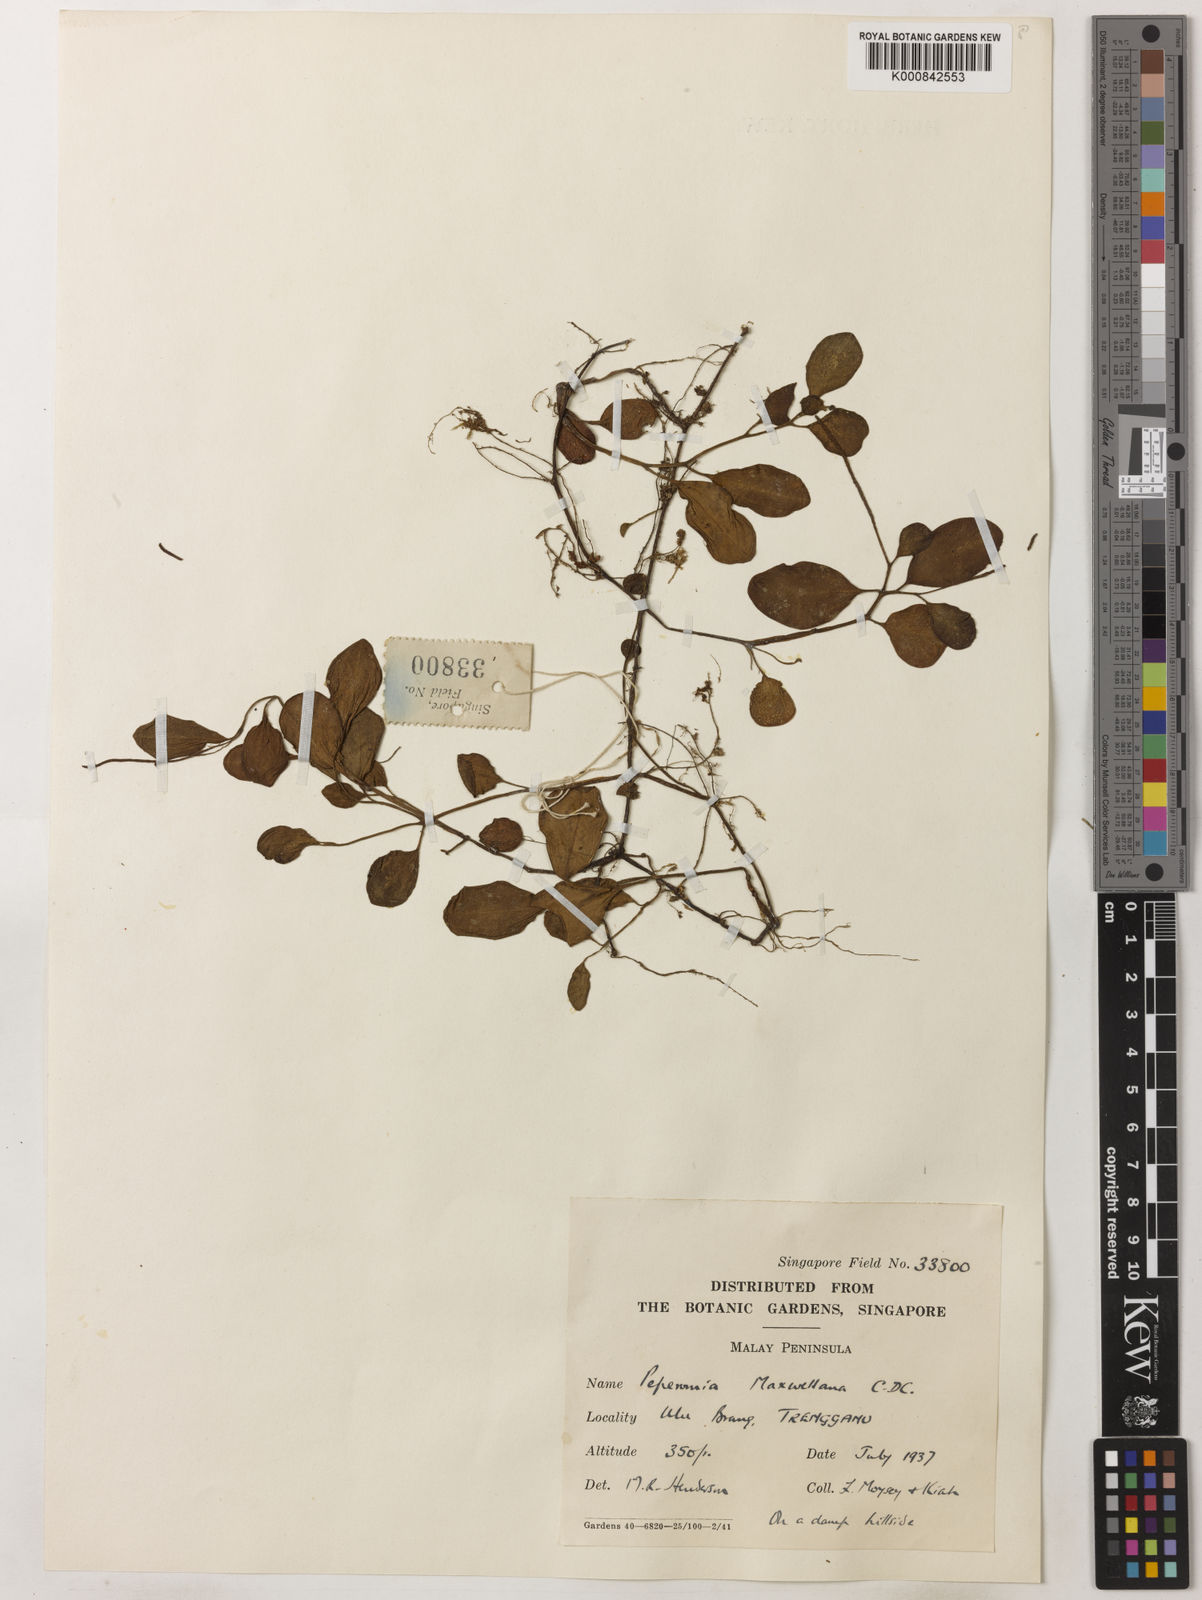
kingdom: Plantae
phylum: Tracheophyta
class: Magnoliopsida
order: Piperales
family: Piperaceae
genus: Peperomia
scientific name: Peperomia maxwellana
